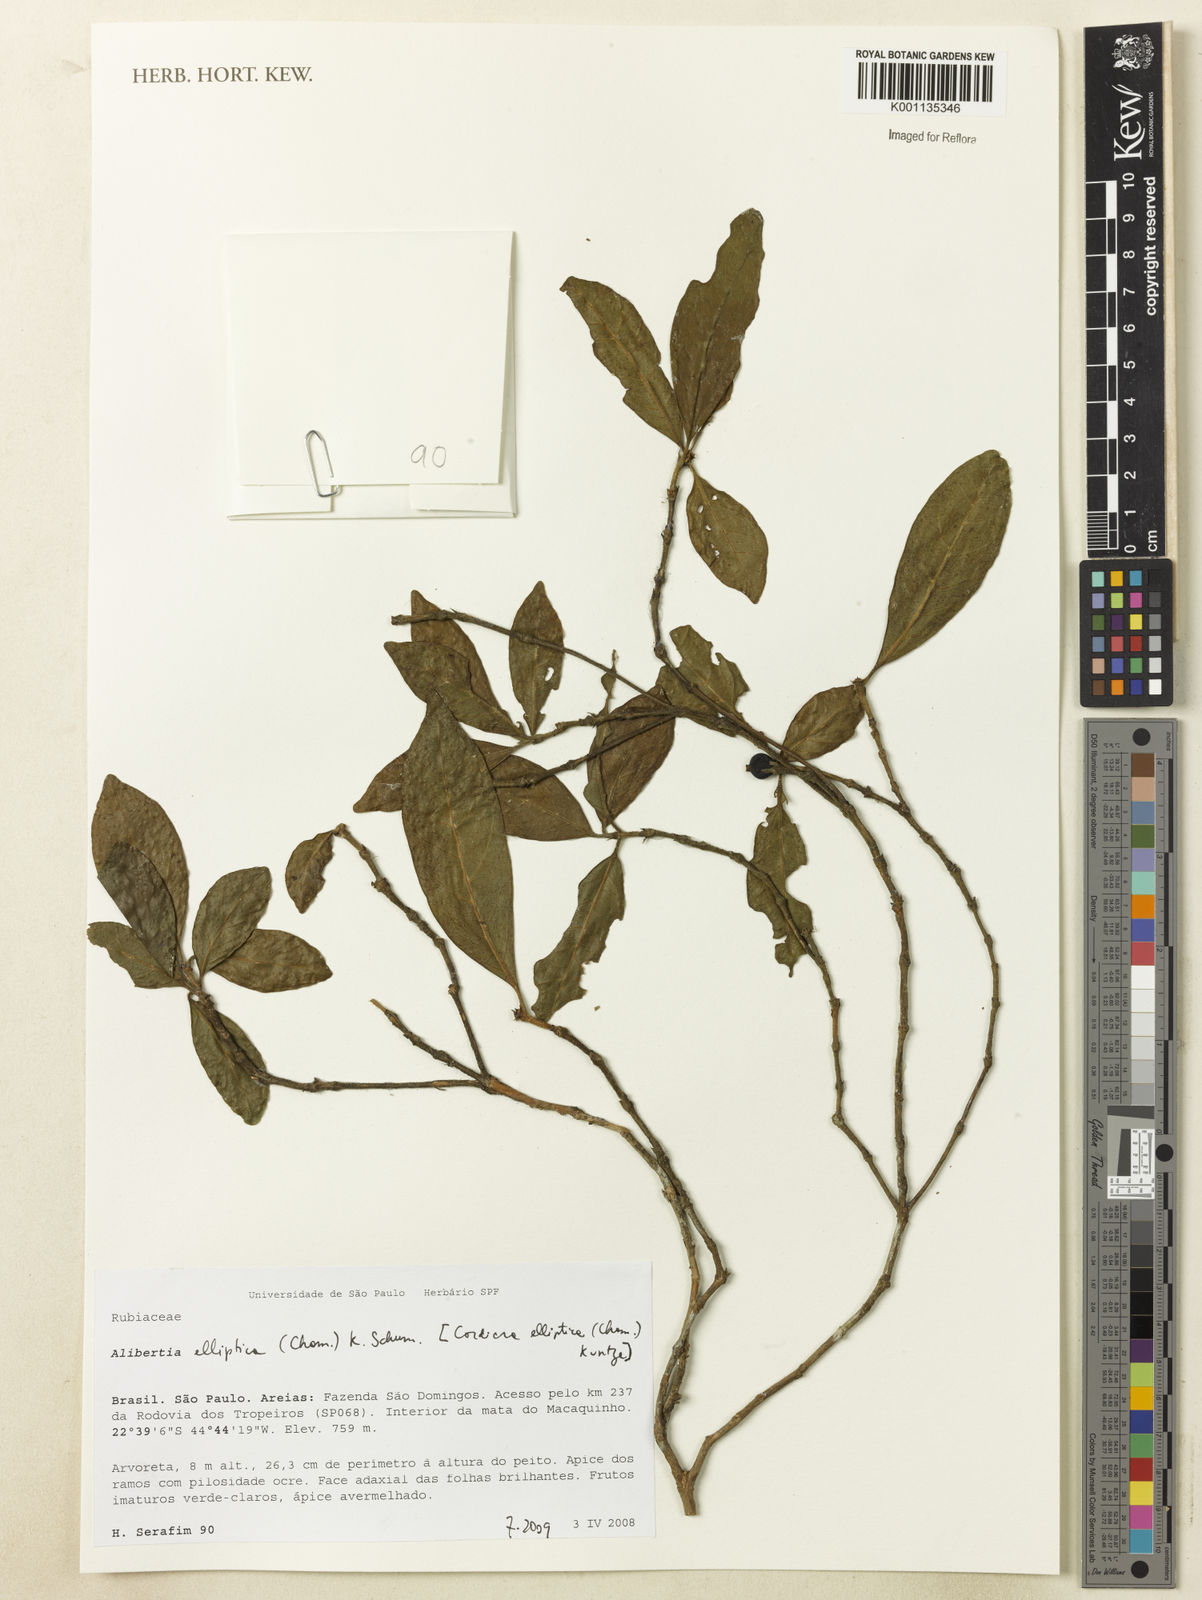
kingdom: Plantae
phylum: Tracheophyta
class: Magnoliopsida
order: Gentianales
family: Rubiaceae
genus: Cordiera
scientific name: Cordiera elliptica
